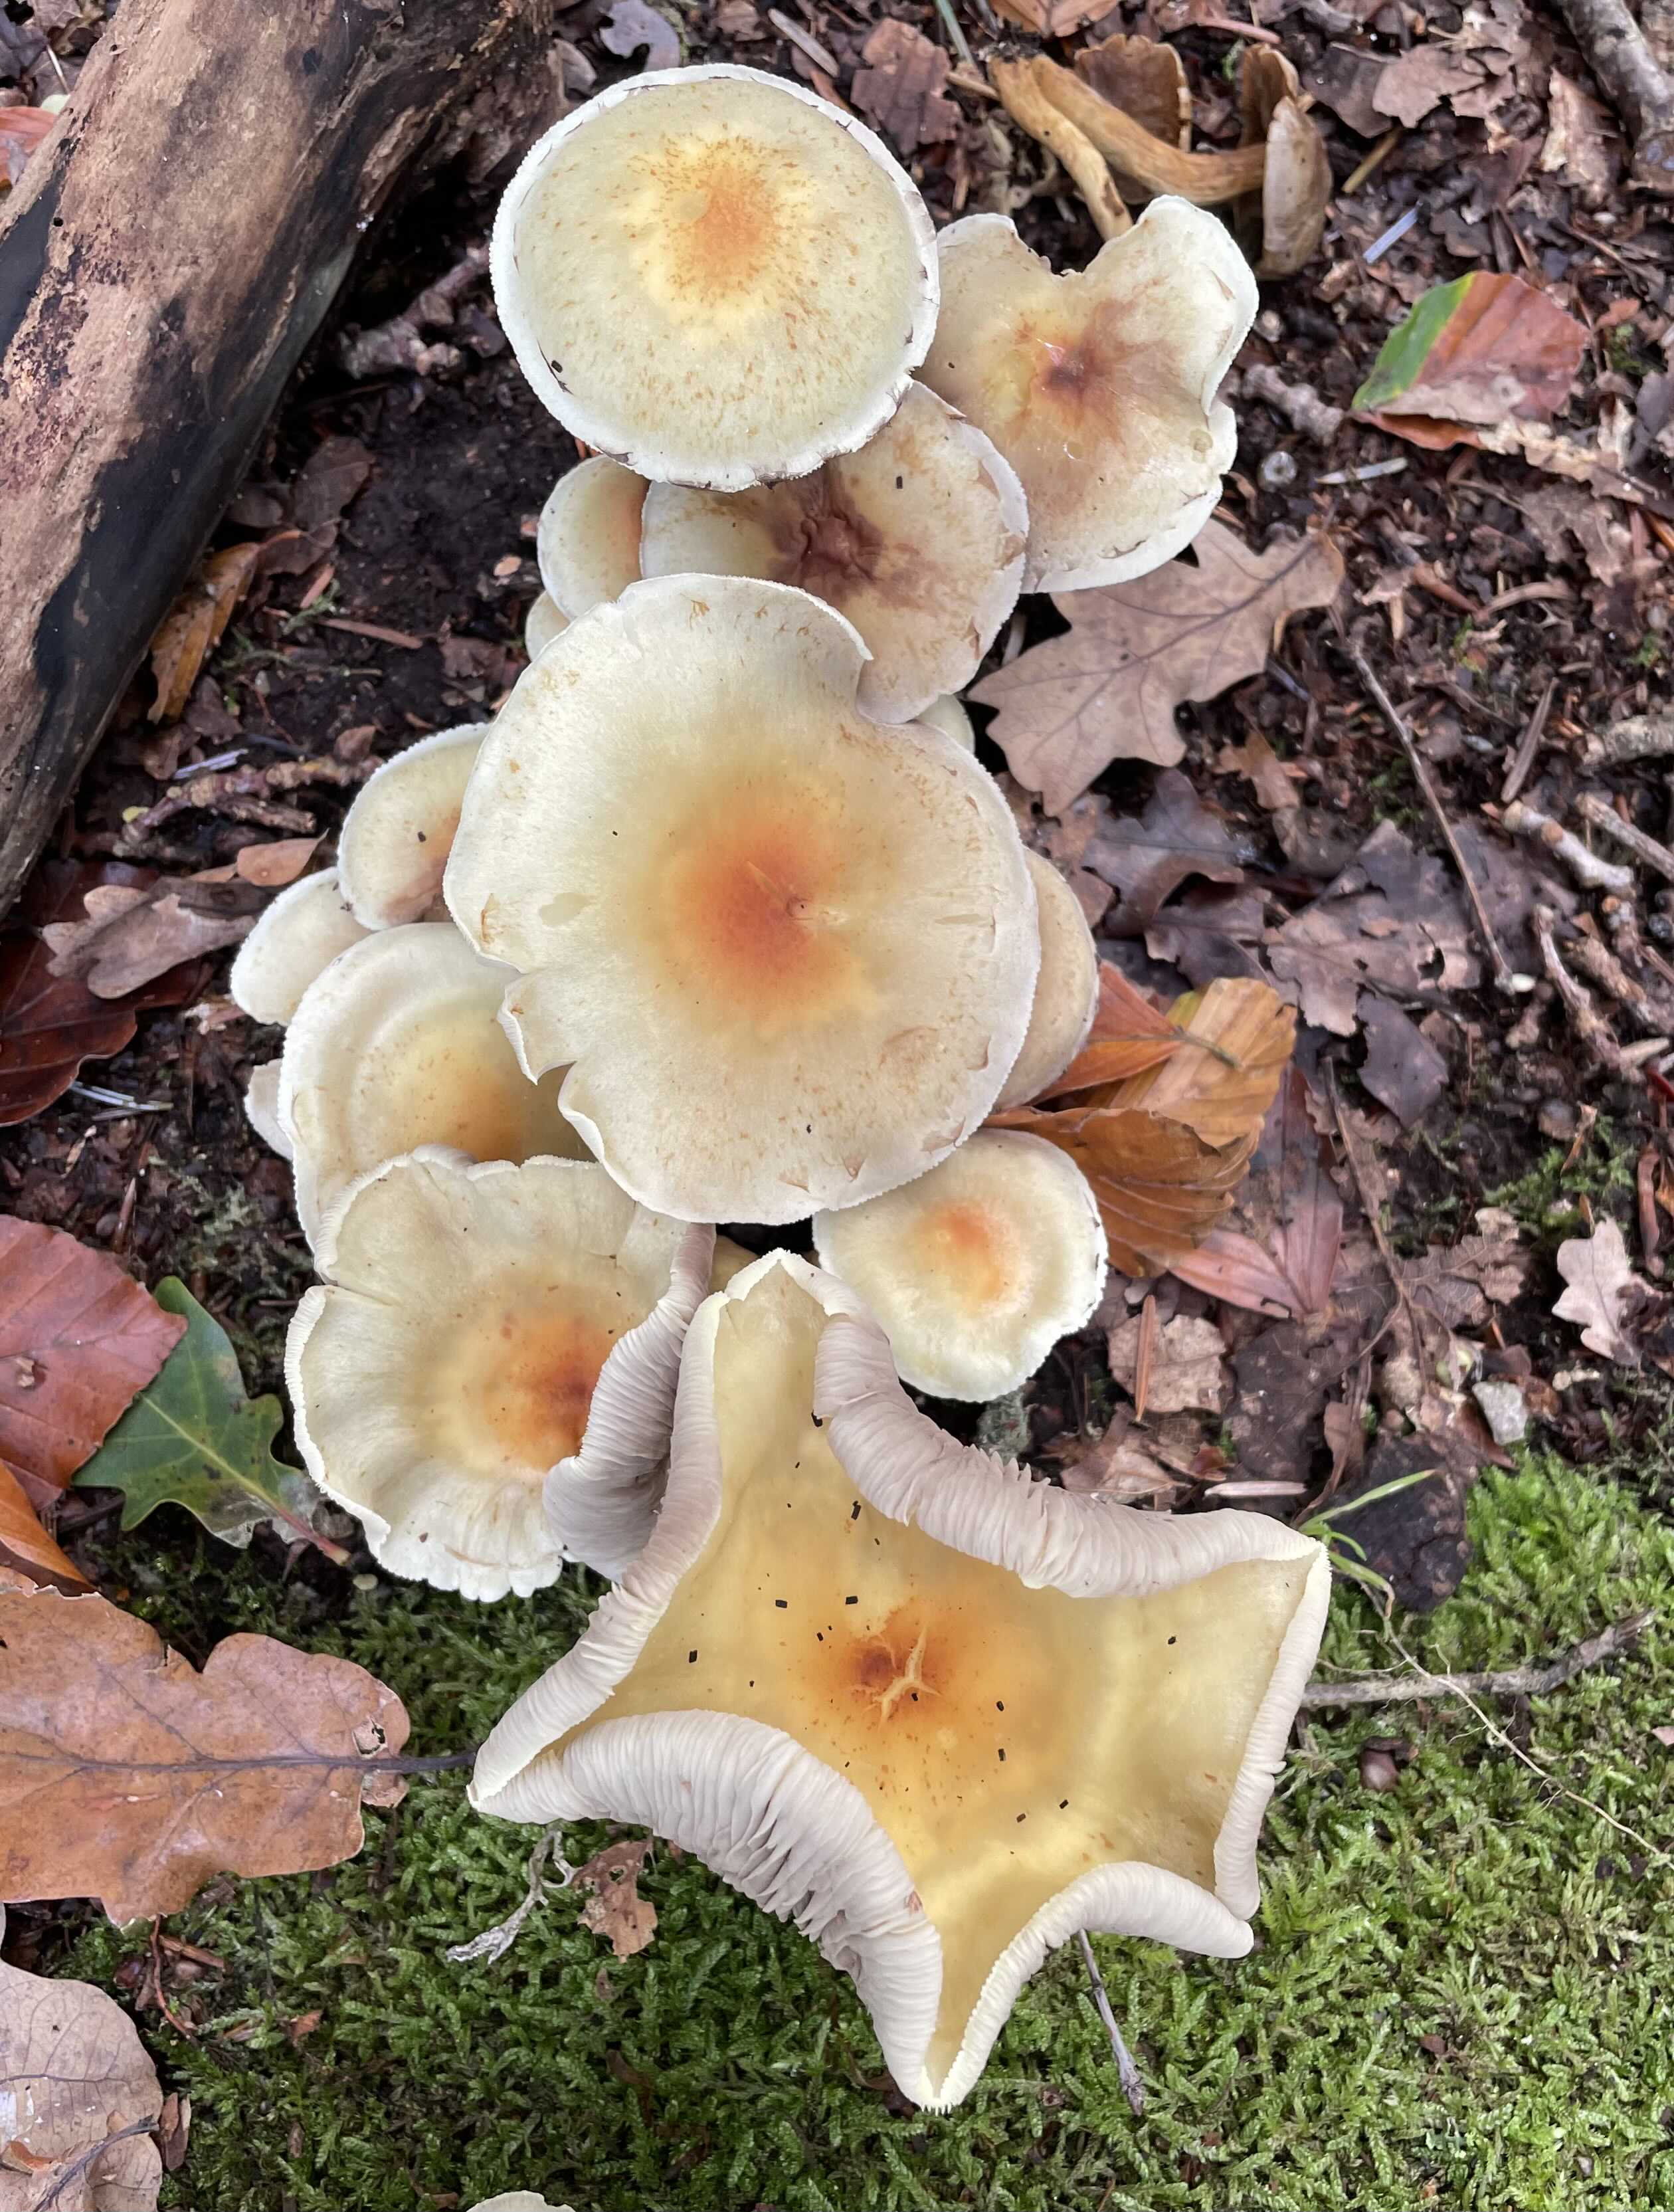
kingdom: Fungi
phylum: Basidiomycota
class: Agaricomycetes
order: Agaricales
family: Strophariaceae
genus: Hypholoma
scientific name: Hypholoma
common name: svovlhat
